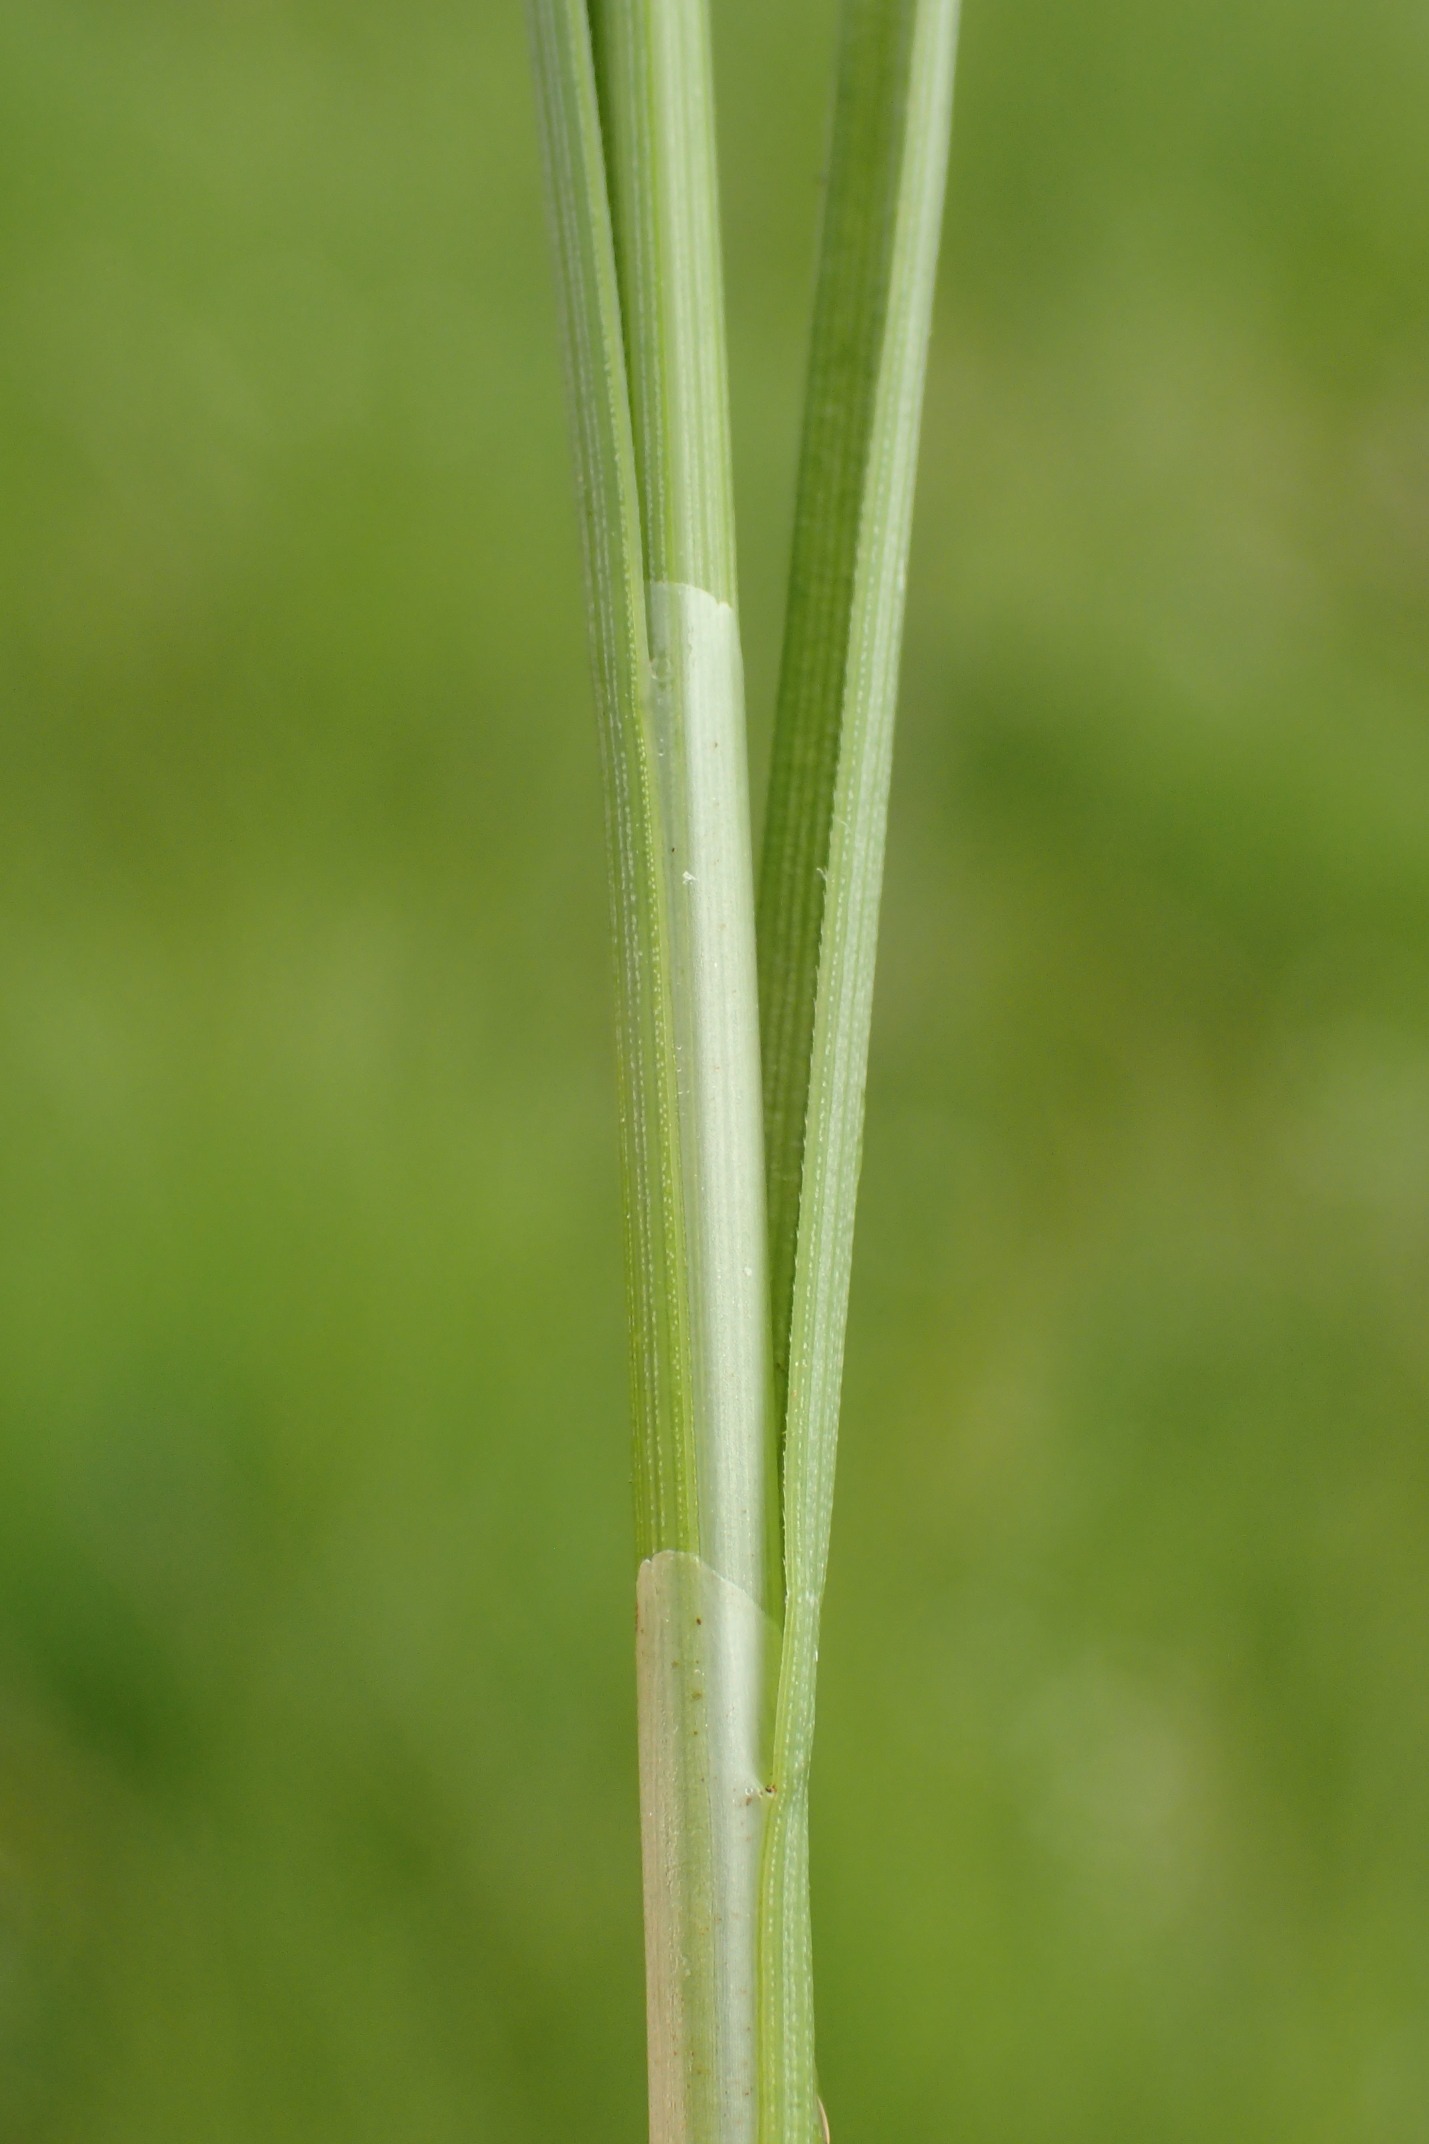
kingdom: Plantae
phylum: Tracheophyta
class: Liliopsida
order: Poales
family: Cyperaceae
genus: Carex
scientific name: Carex diandra
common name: Trindstænglet star
